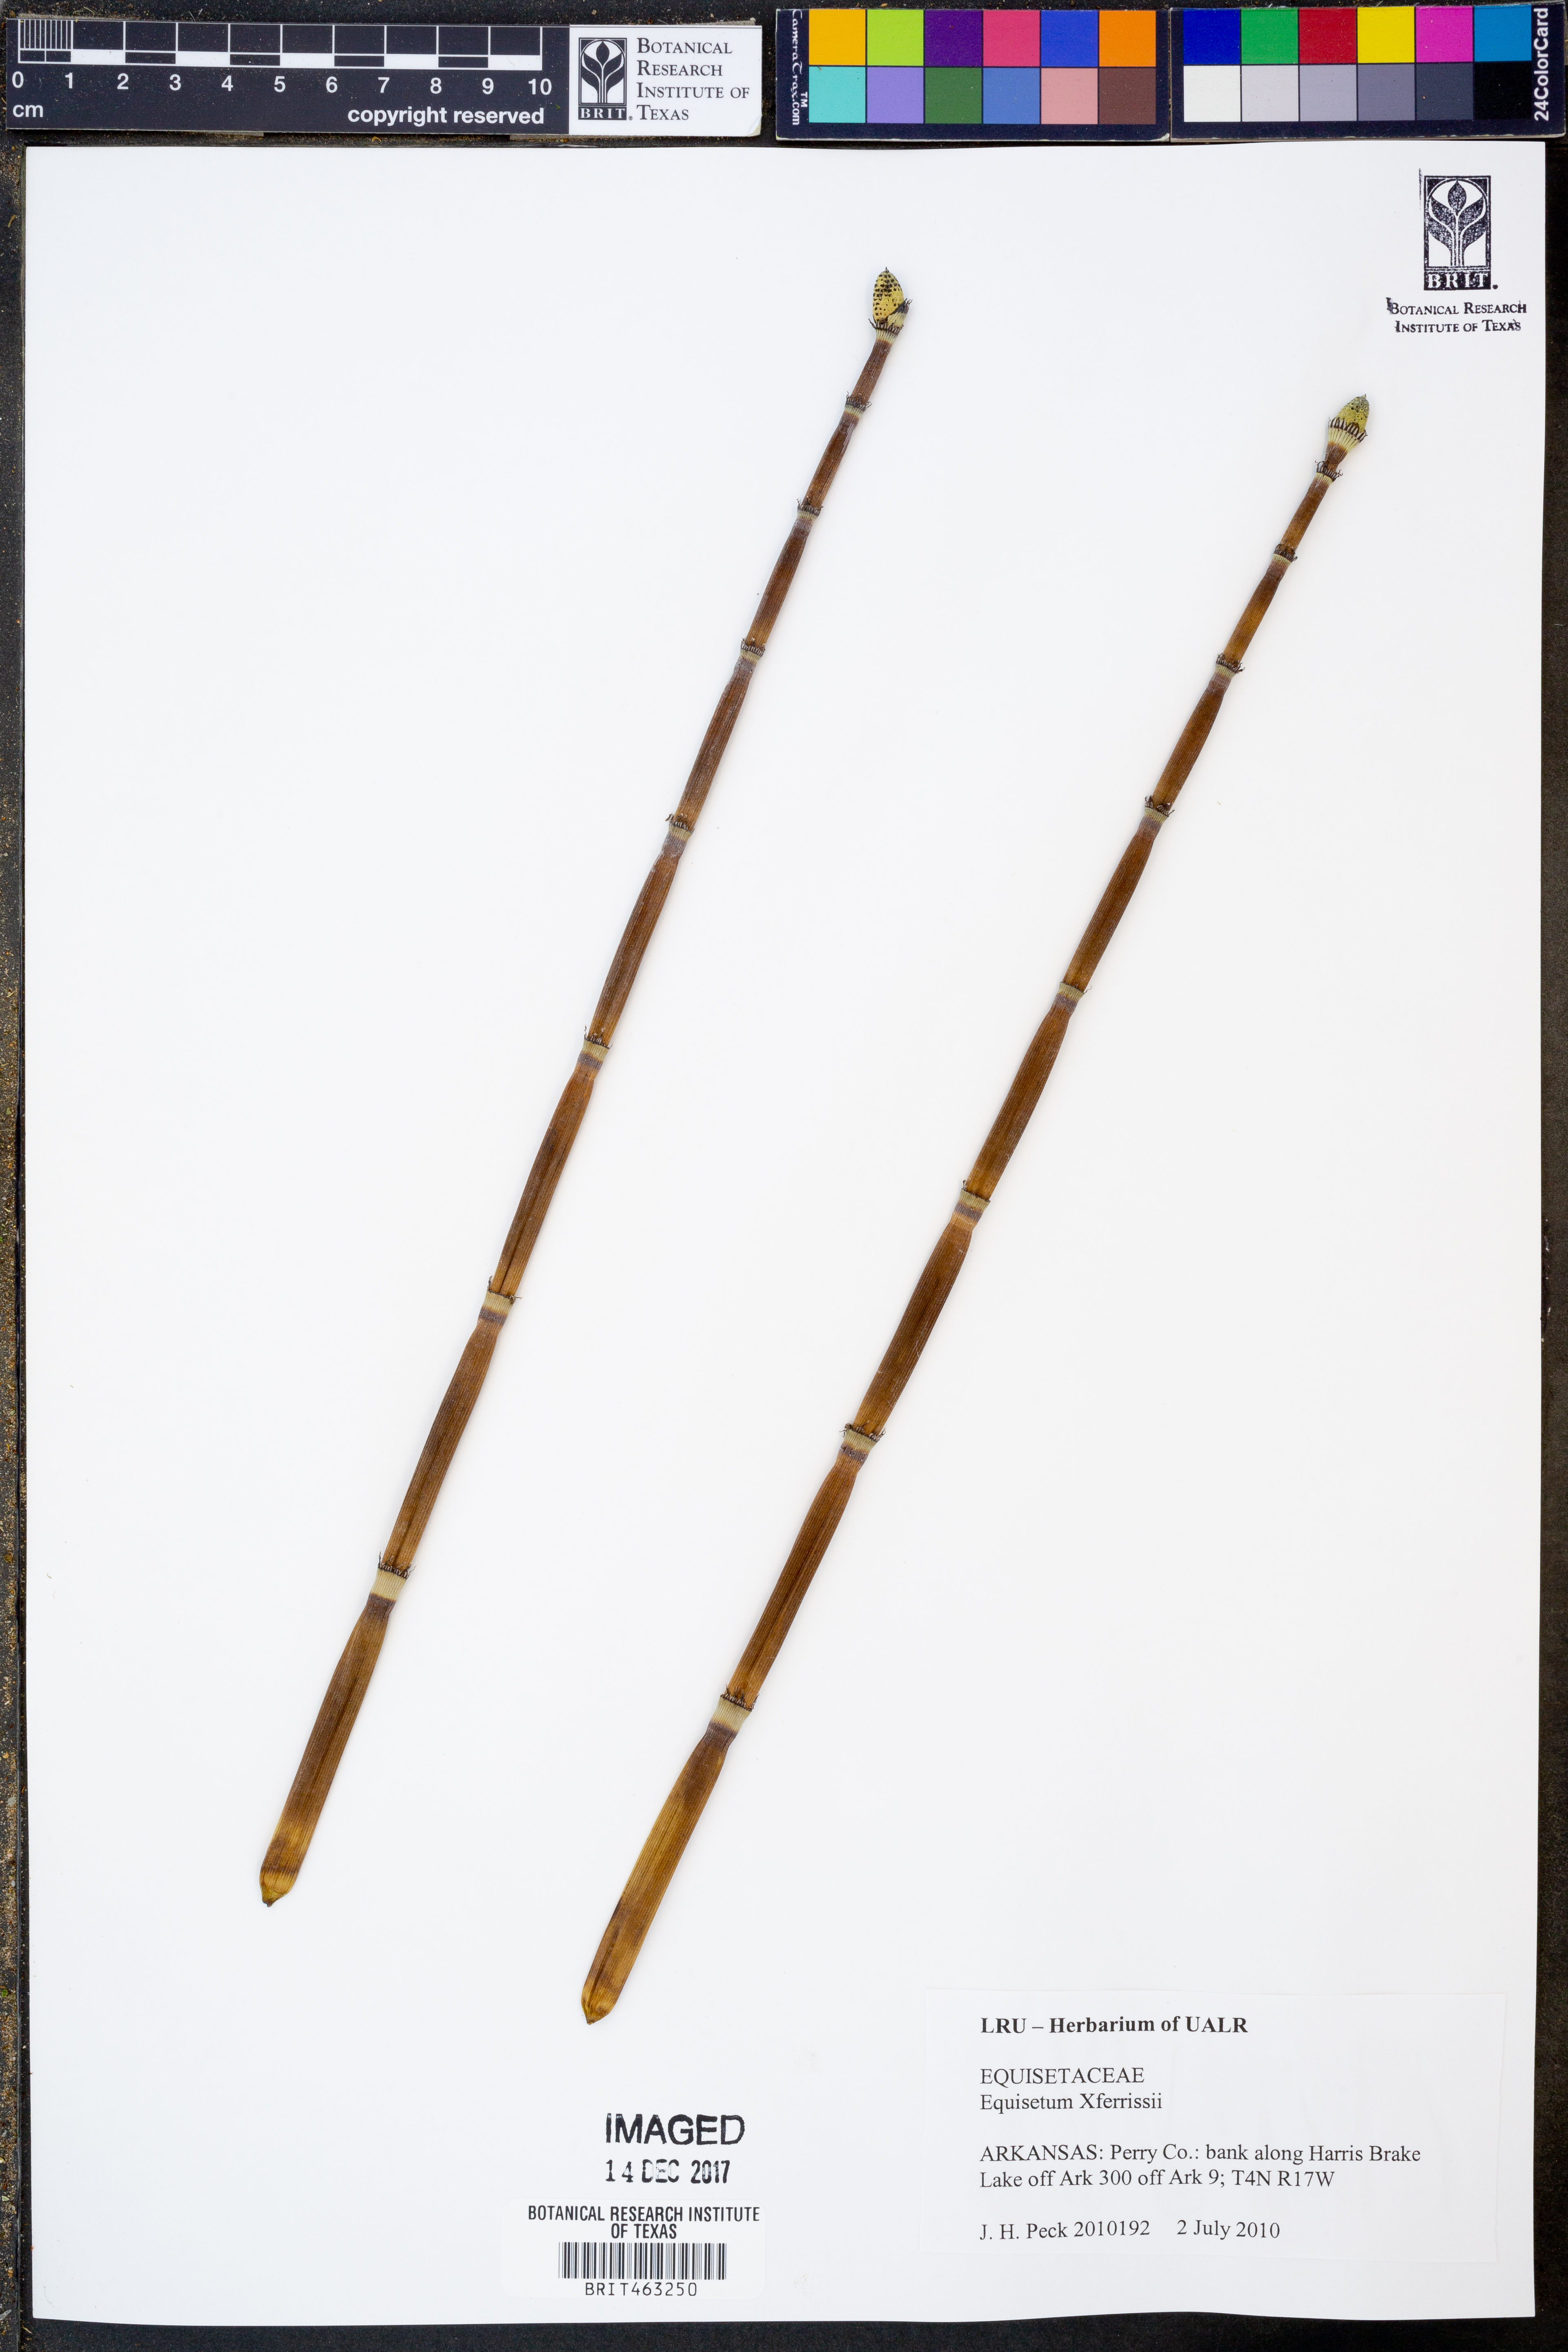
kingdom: Plantae
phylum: Tracheophyta
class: Polypodiopsida
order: Equisetales
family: Equisetaceae
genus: Equisetum
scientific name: Equisetum ferrissii
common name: Ferriss' horsetail
